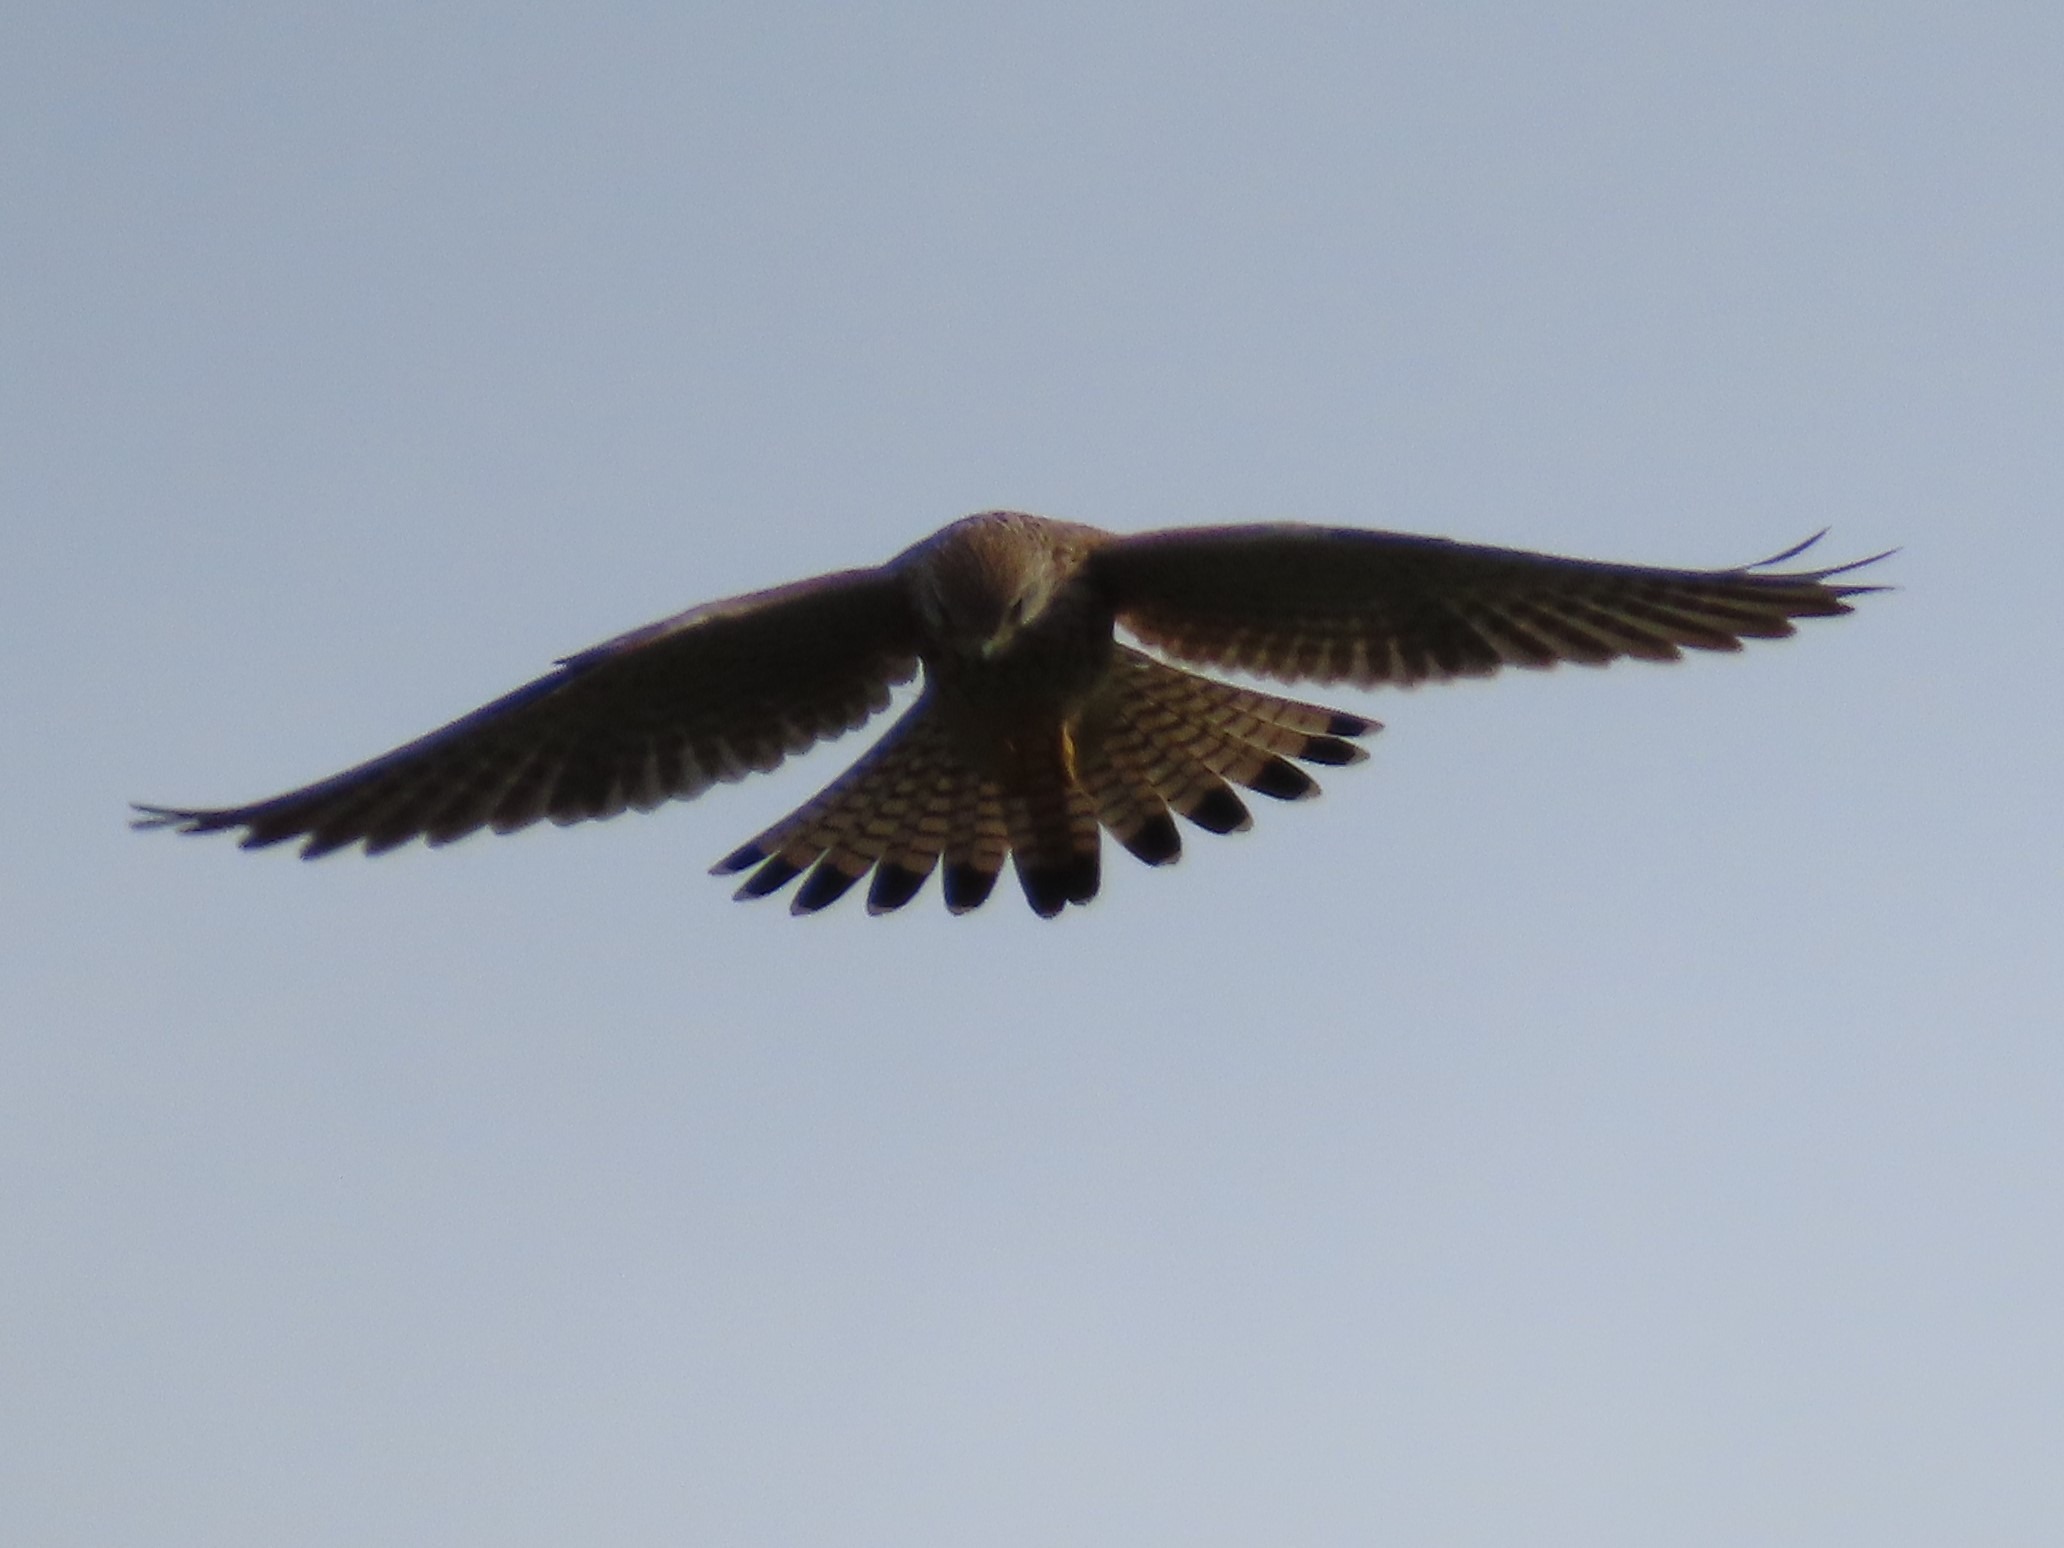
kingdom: Animalia
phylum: Chordata
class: Aves
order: Falconiformes
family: Falconidae
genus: Falco
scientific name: Falco tinnunculus
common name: Tårnfalk
